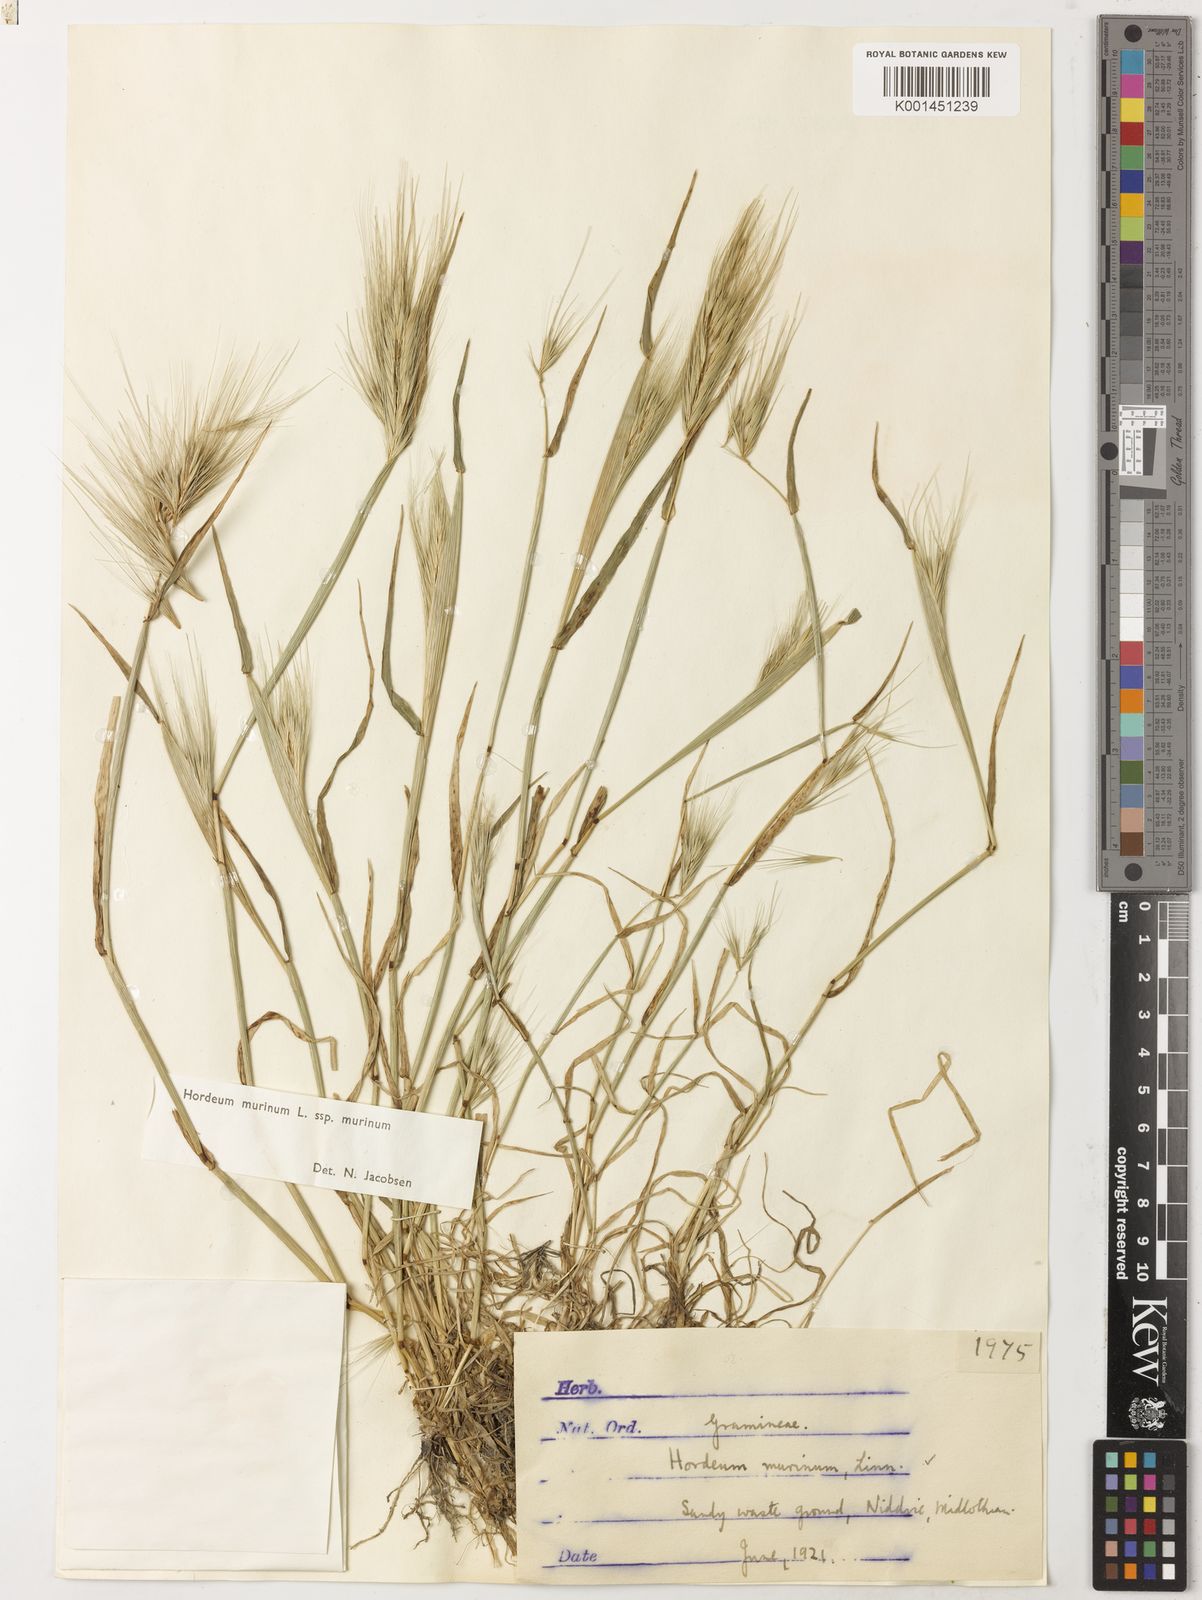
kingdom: Plantae
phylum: Tracheophyta
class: Liliopsida
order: Poales
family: Poaceae
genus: Hordeum
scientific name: Hordeum murinum
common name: Wall barley
